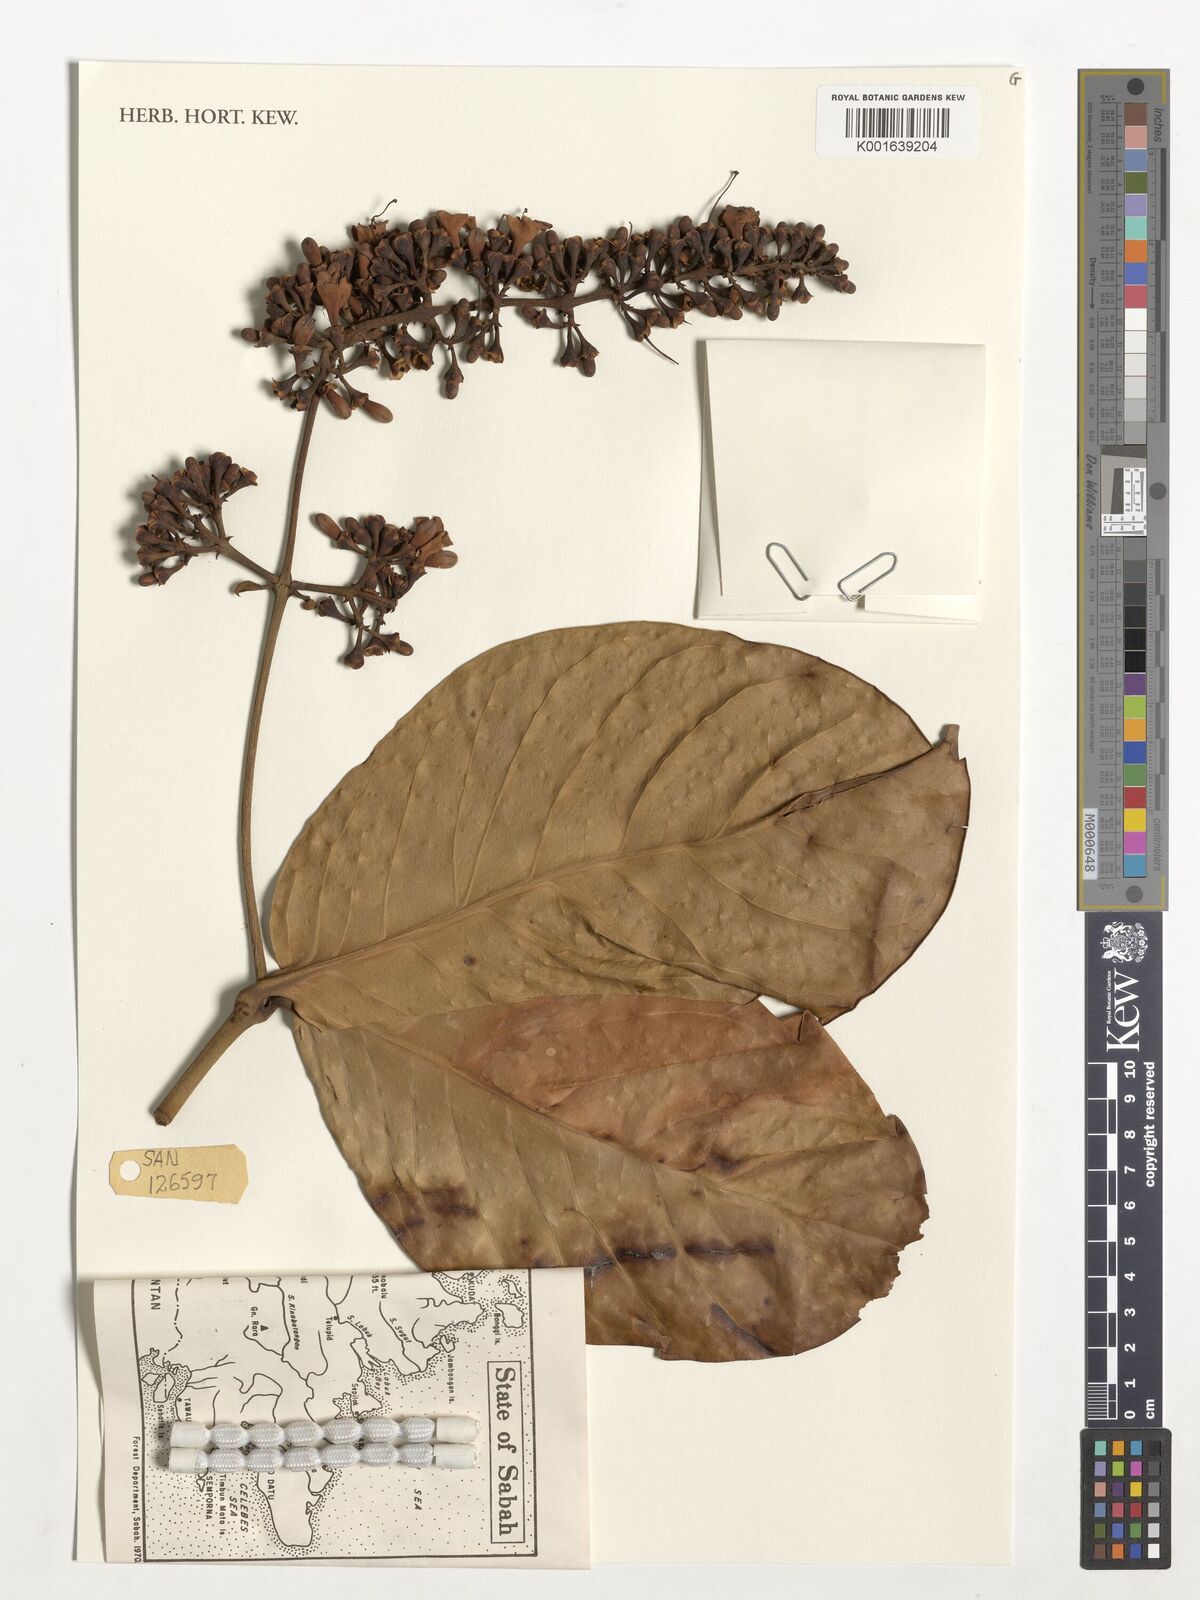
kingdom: Plantae
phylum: Tracheophyta
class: Magnoliopsida
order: Gentianales
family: Gentianaceae
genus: Utania
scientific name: Utania racemosa
